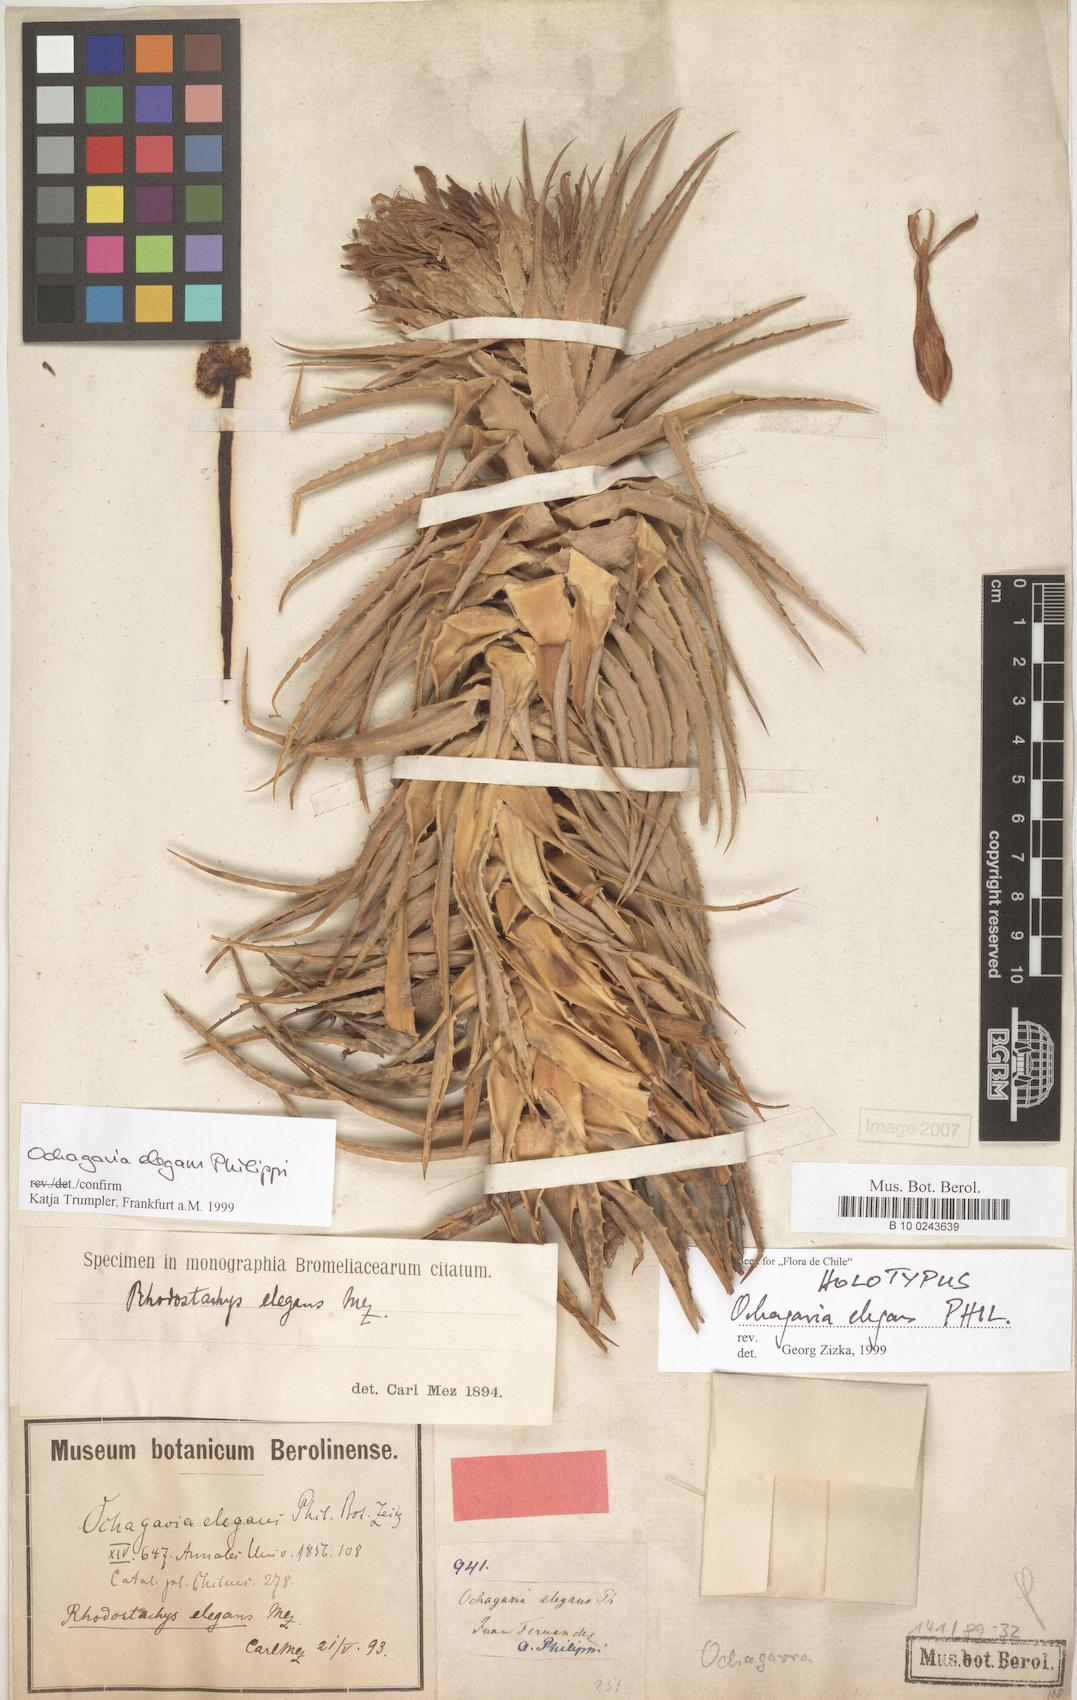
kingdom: Plantae
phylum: Tracheophyta
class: Liliopsida
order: Poales
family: Bromeliaceae
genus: Ochagavia
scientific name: Ochagavia elegans
